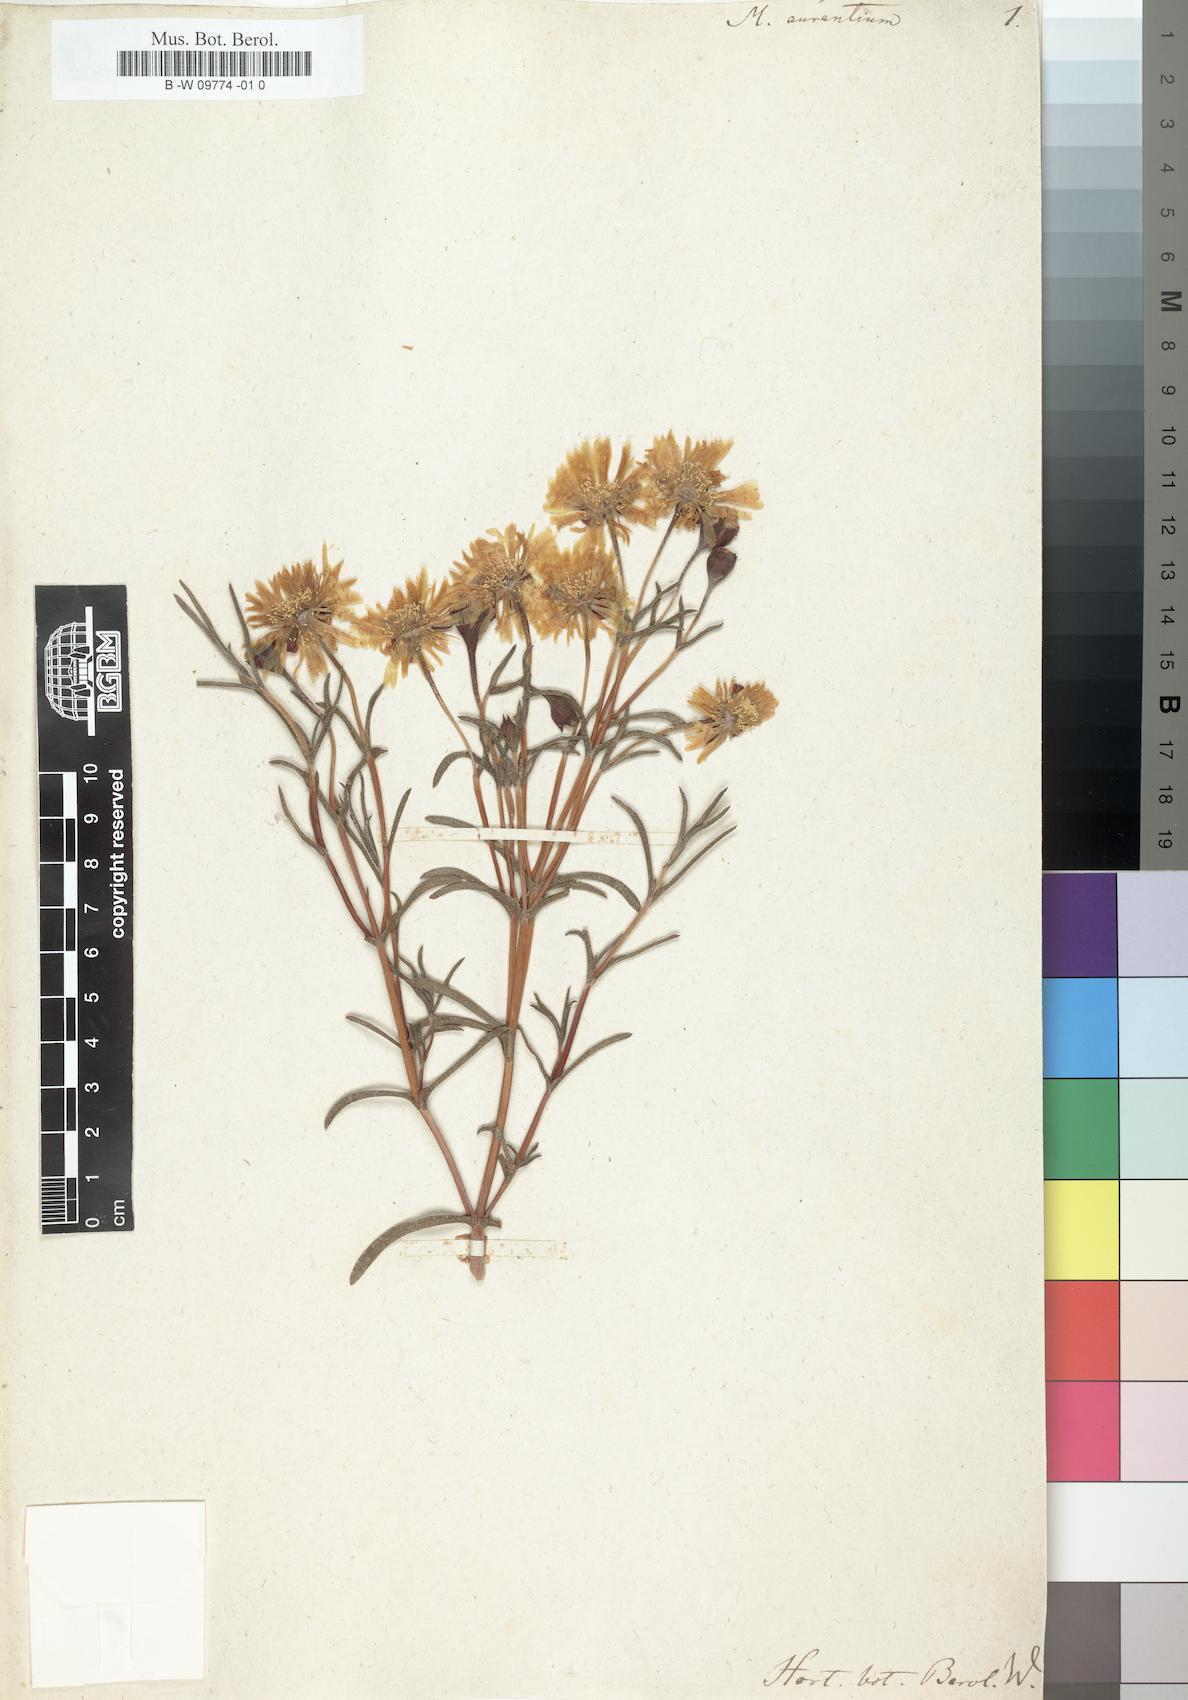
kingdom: Plantae
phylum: Tracheophyta
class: Magnoliopsida
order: Caryophyllales
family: Aizoaceae
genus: Lampranthus
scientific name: Lampranthus glaucoides
